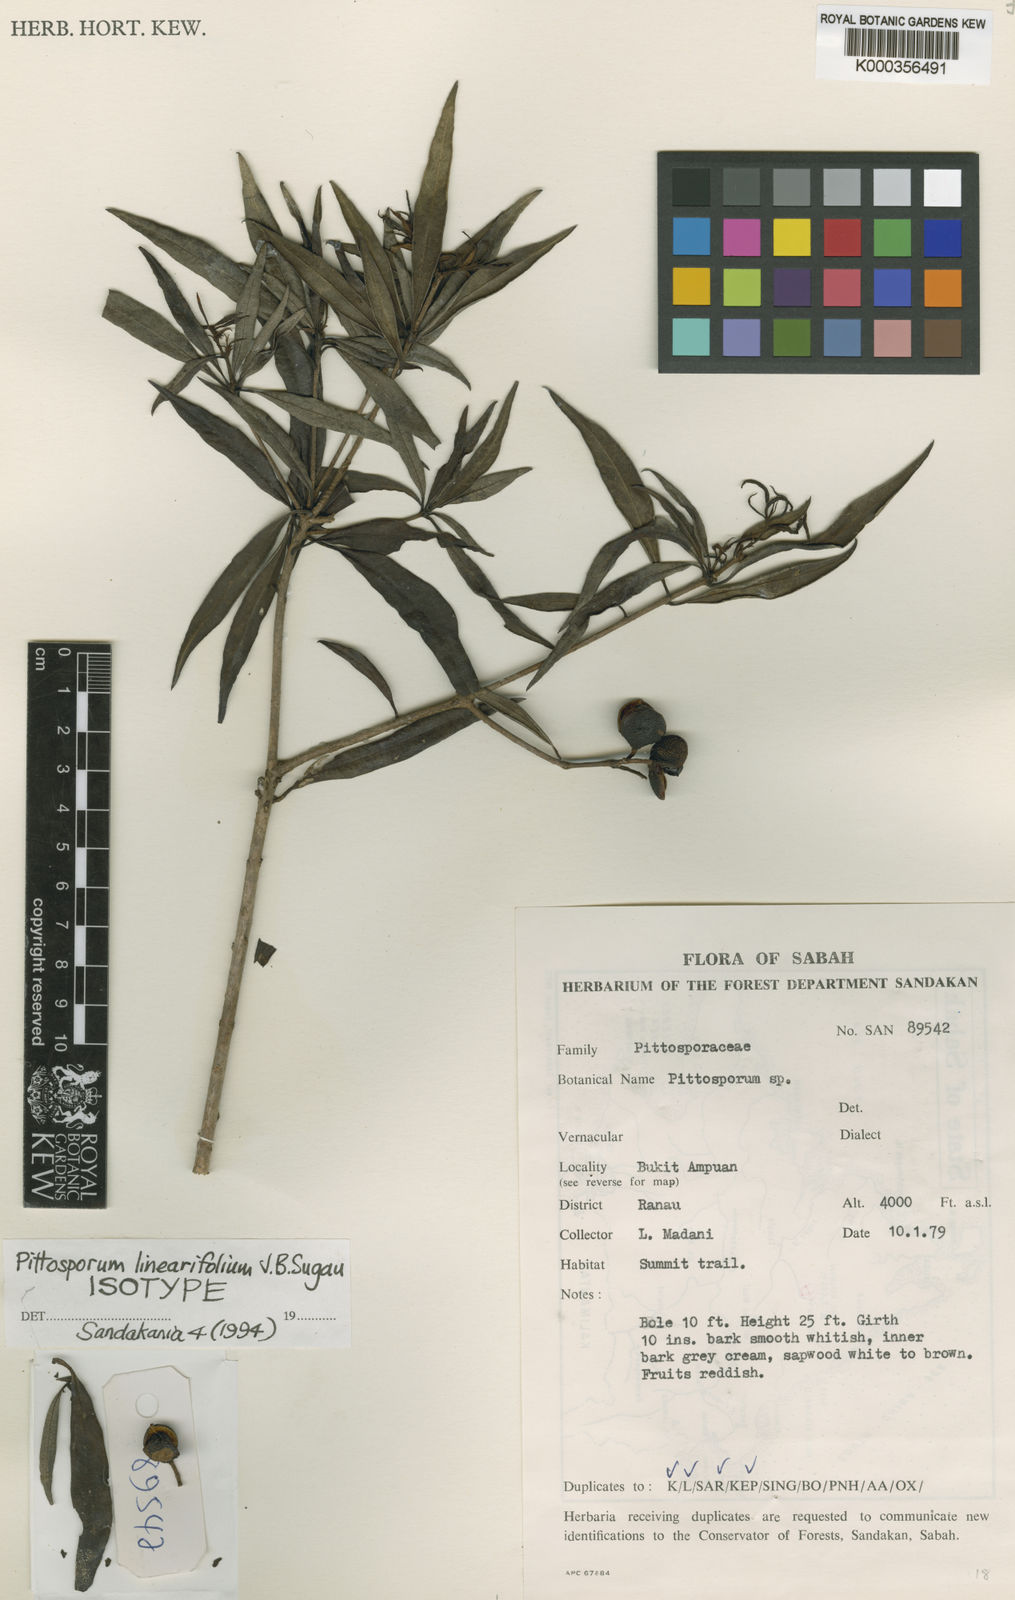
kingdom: Plantae
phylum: Tracheophyta
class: Magnoliopsida
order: Apiales
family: Pittosporaceae
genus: Pittosporum
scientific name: Pittosporum linearifolium
